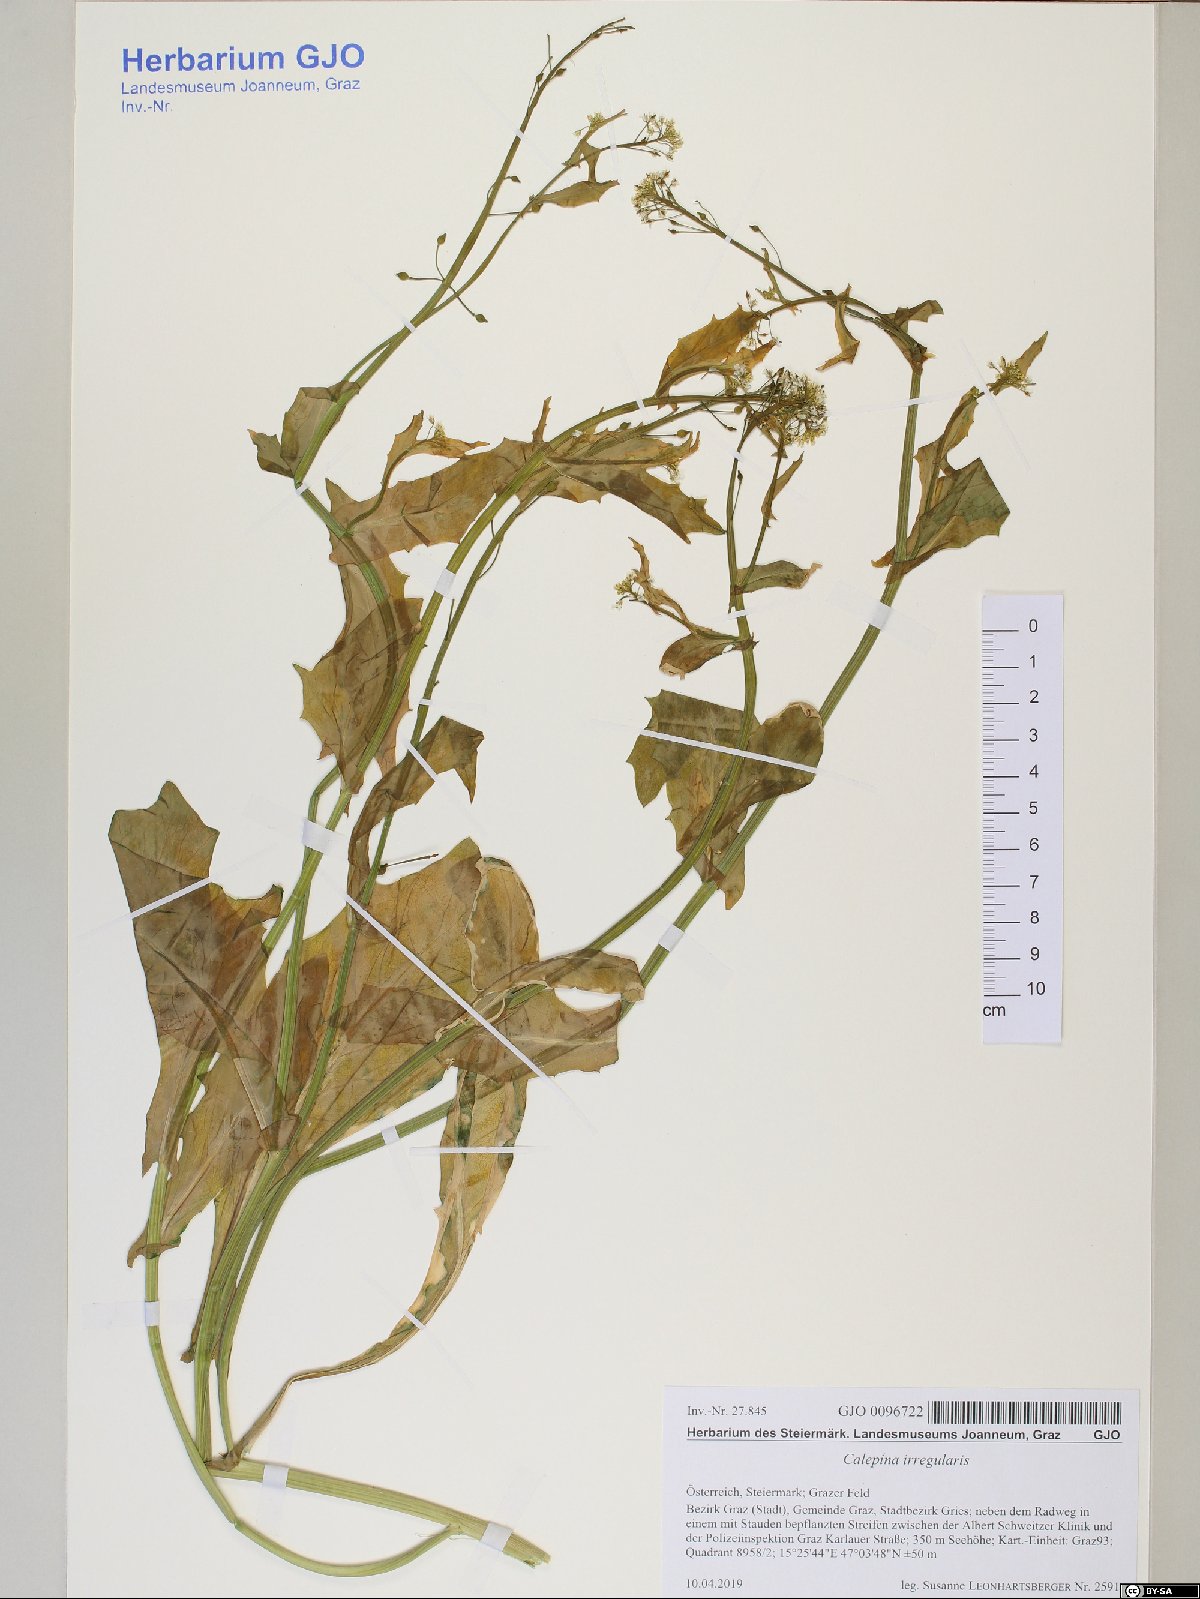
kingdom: Plantae
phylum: Tracheophyta
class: Magnoliopsida
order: Brassicales
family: Brassicaceae
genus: Calepina
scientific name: Calepina irregularis
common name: White ballmustard
